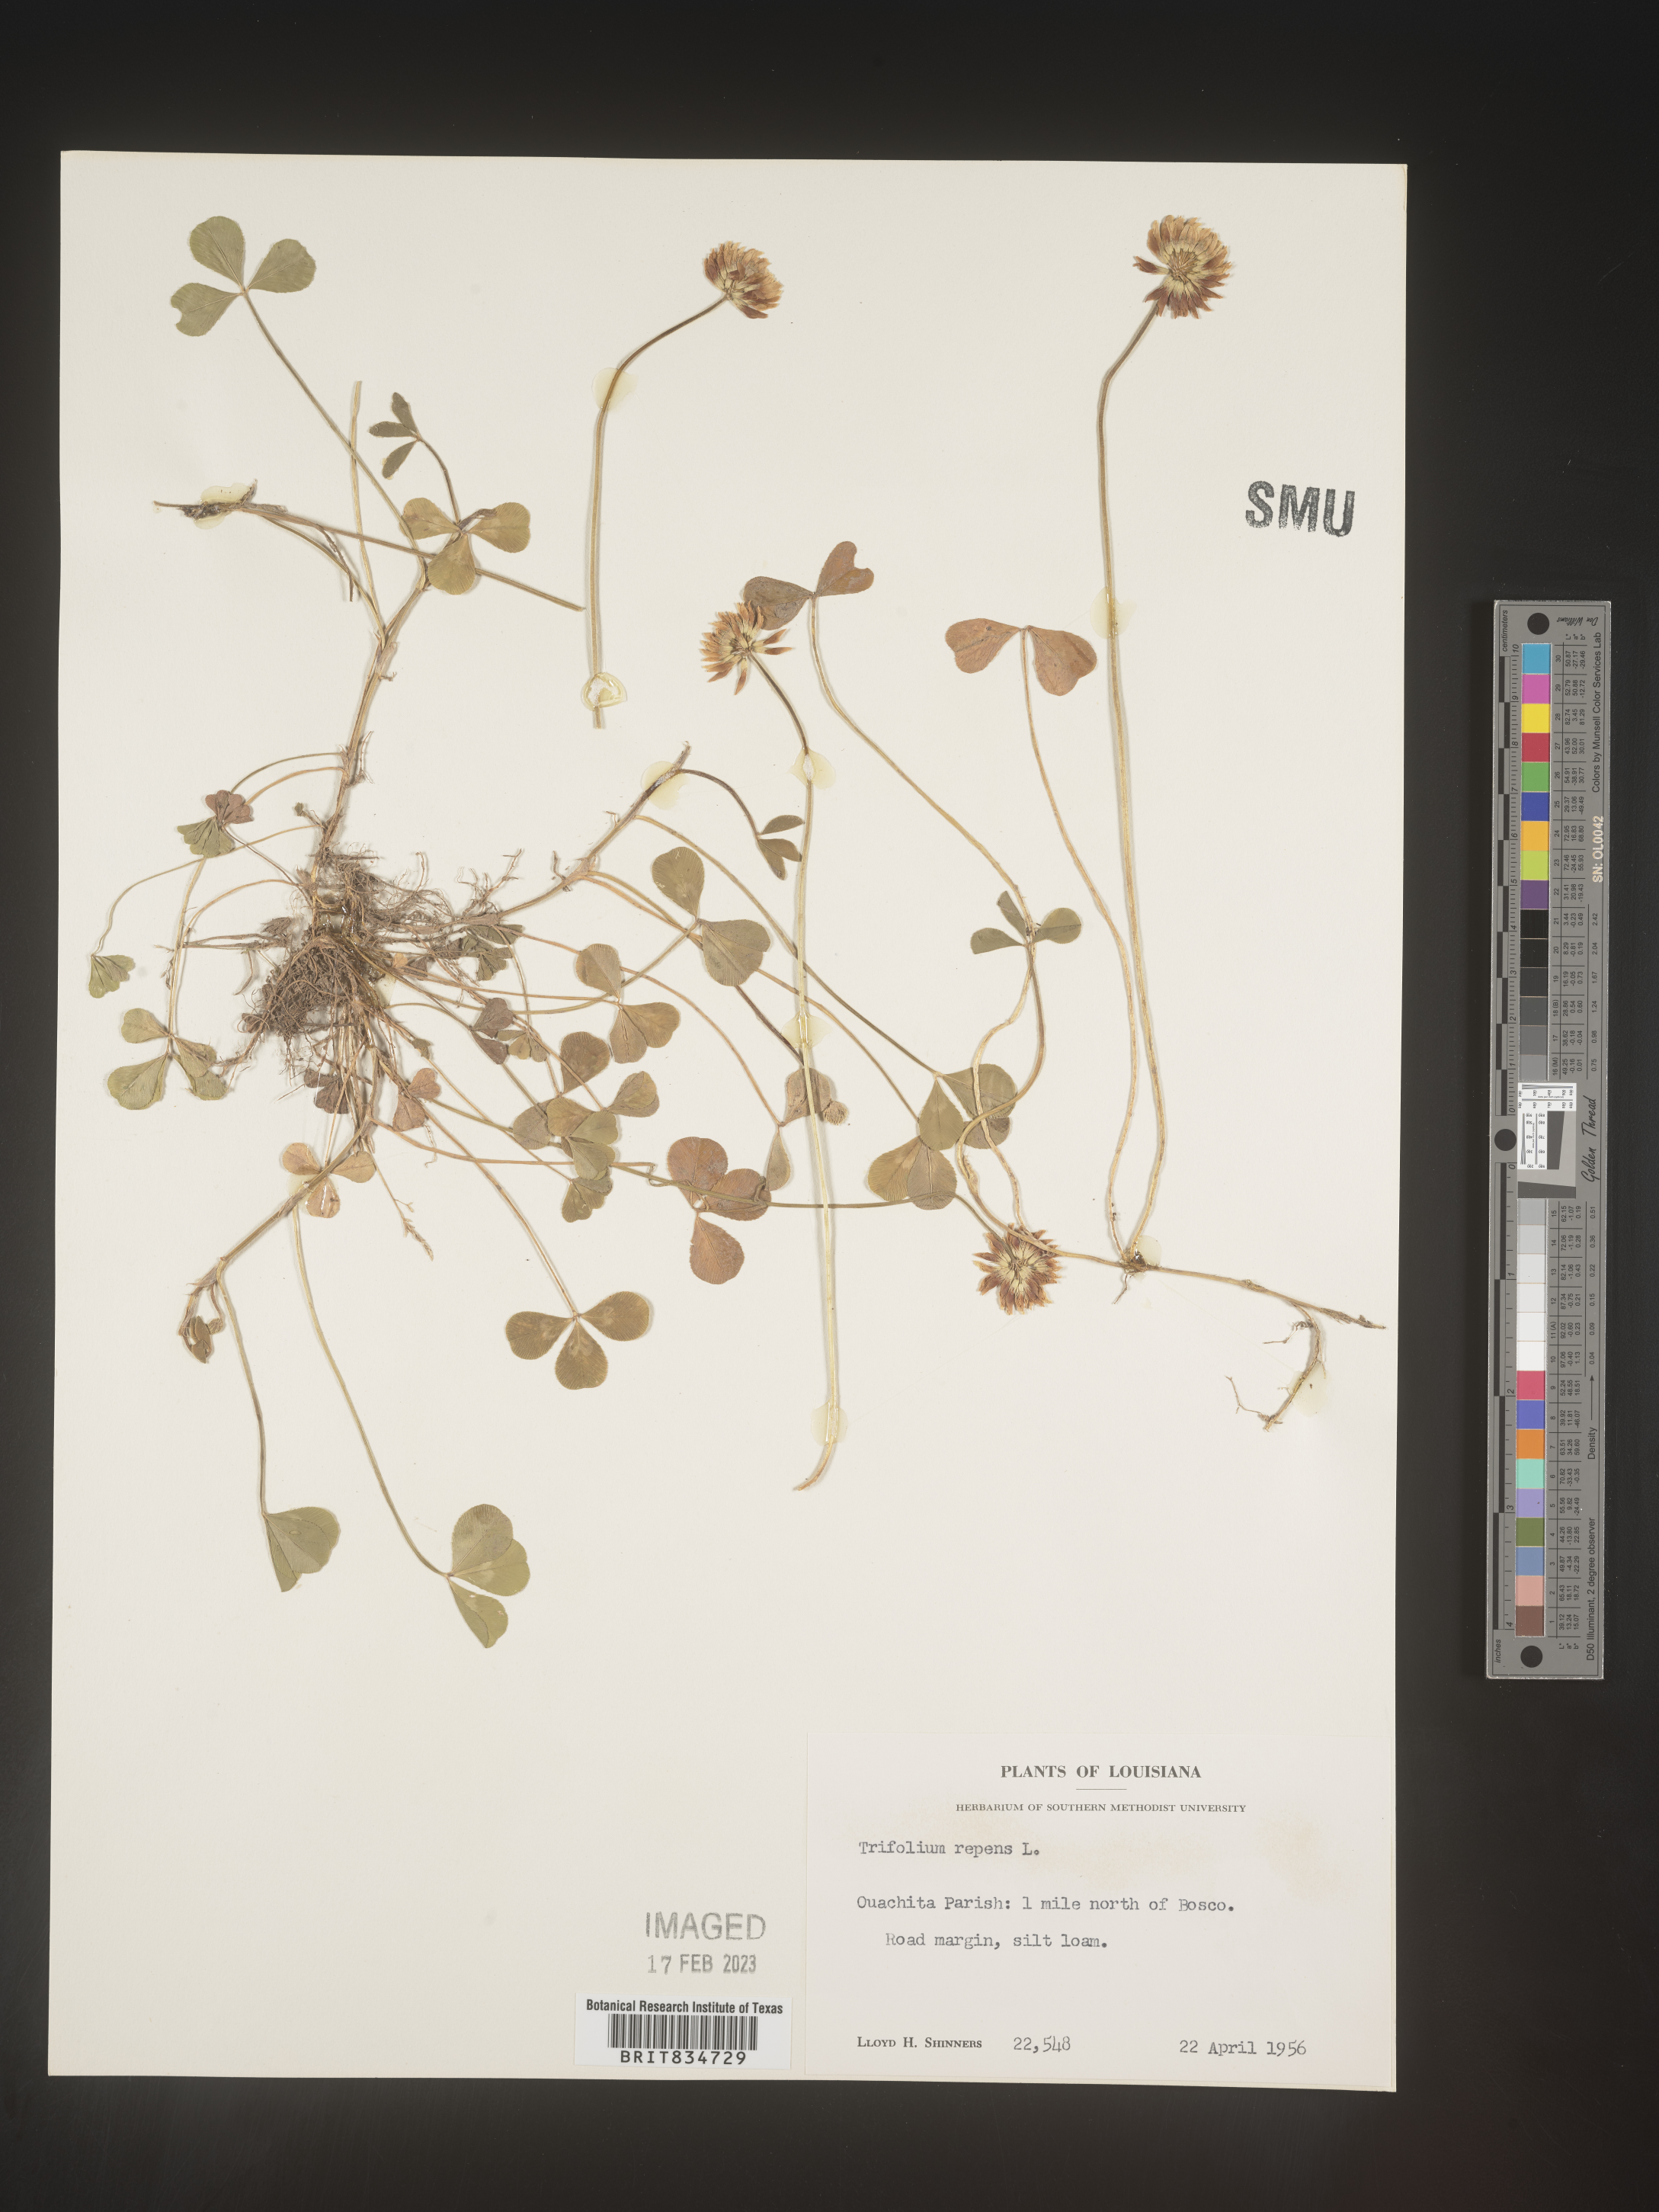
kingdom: Plantae
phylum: Tracheophyta
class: Magnoliopsida
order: Fabales
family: Fabaceae
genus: Trifolium
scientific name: Trifolium repens
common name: White clover
